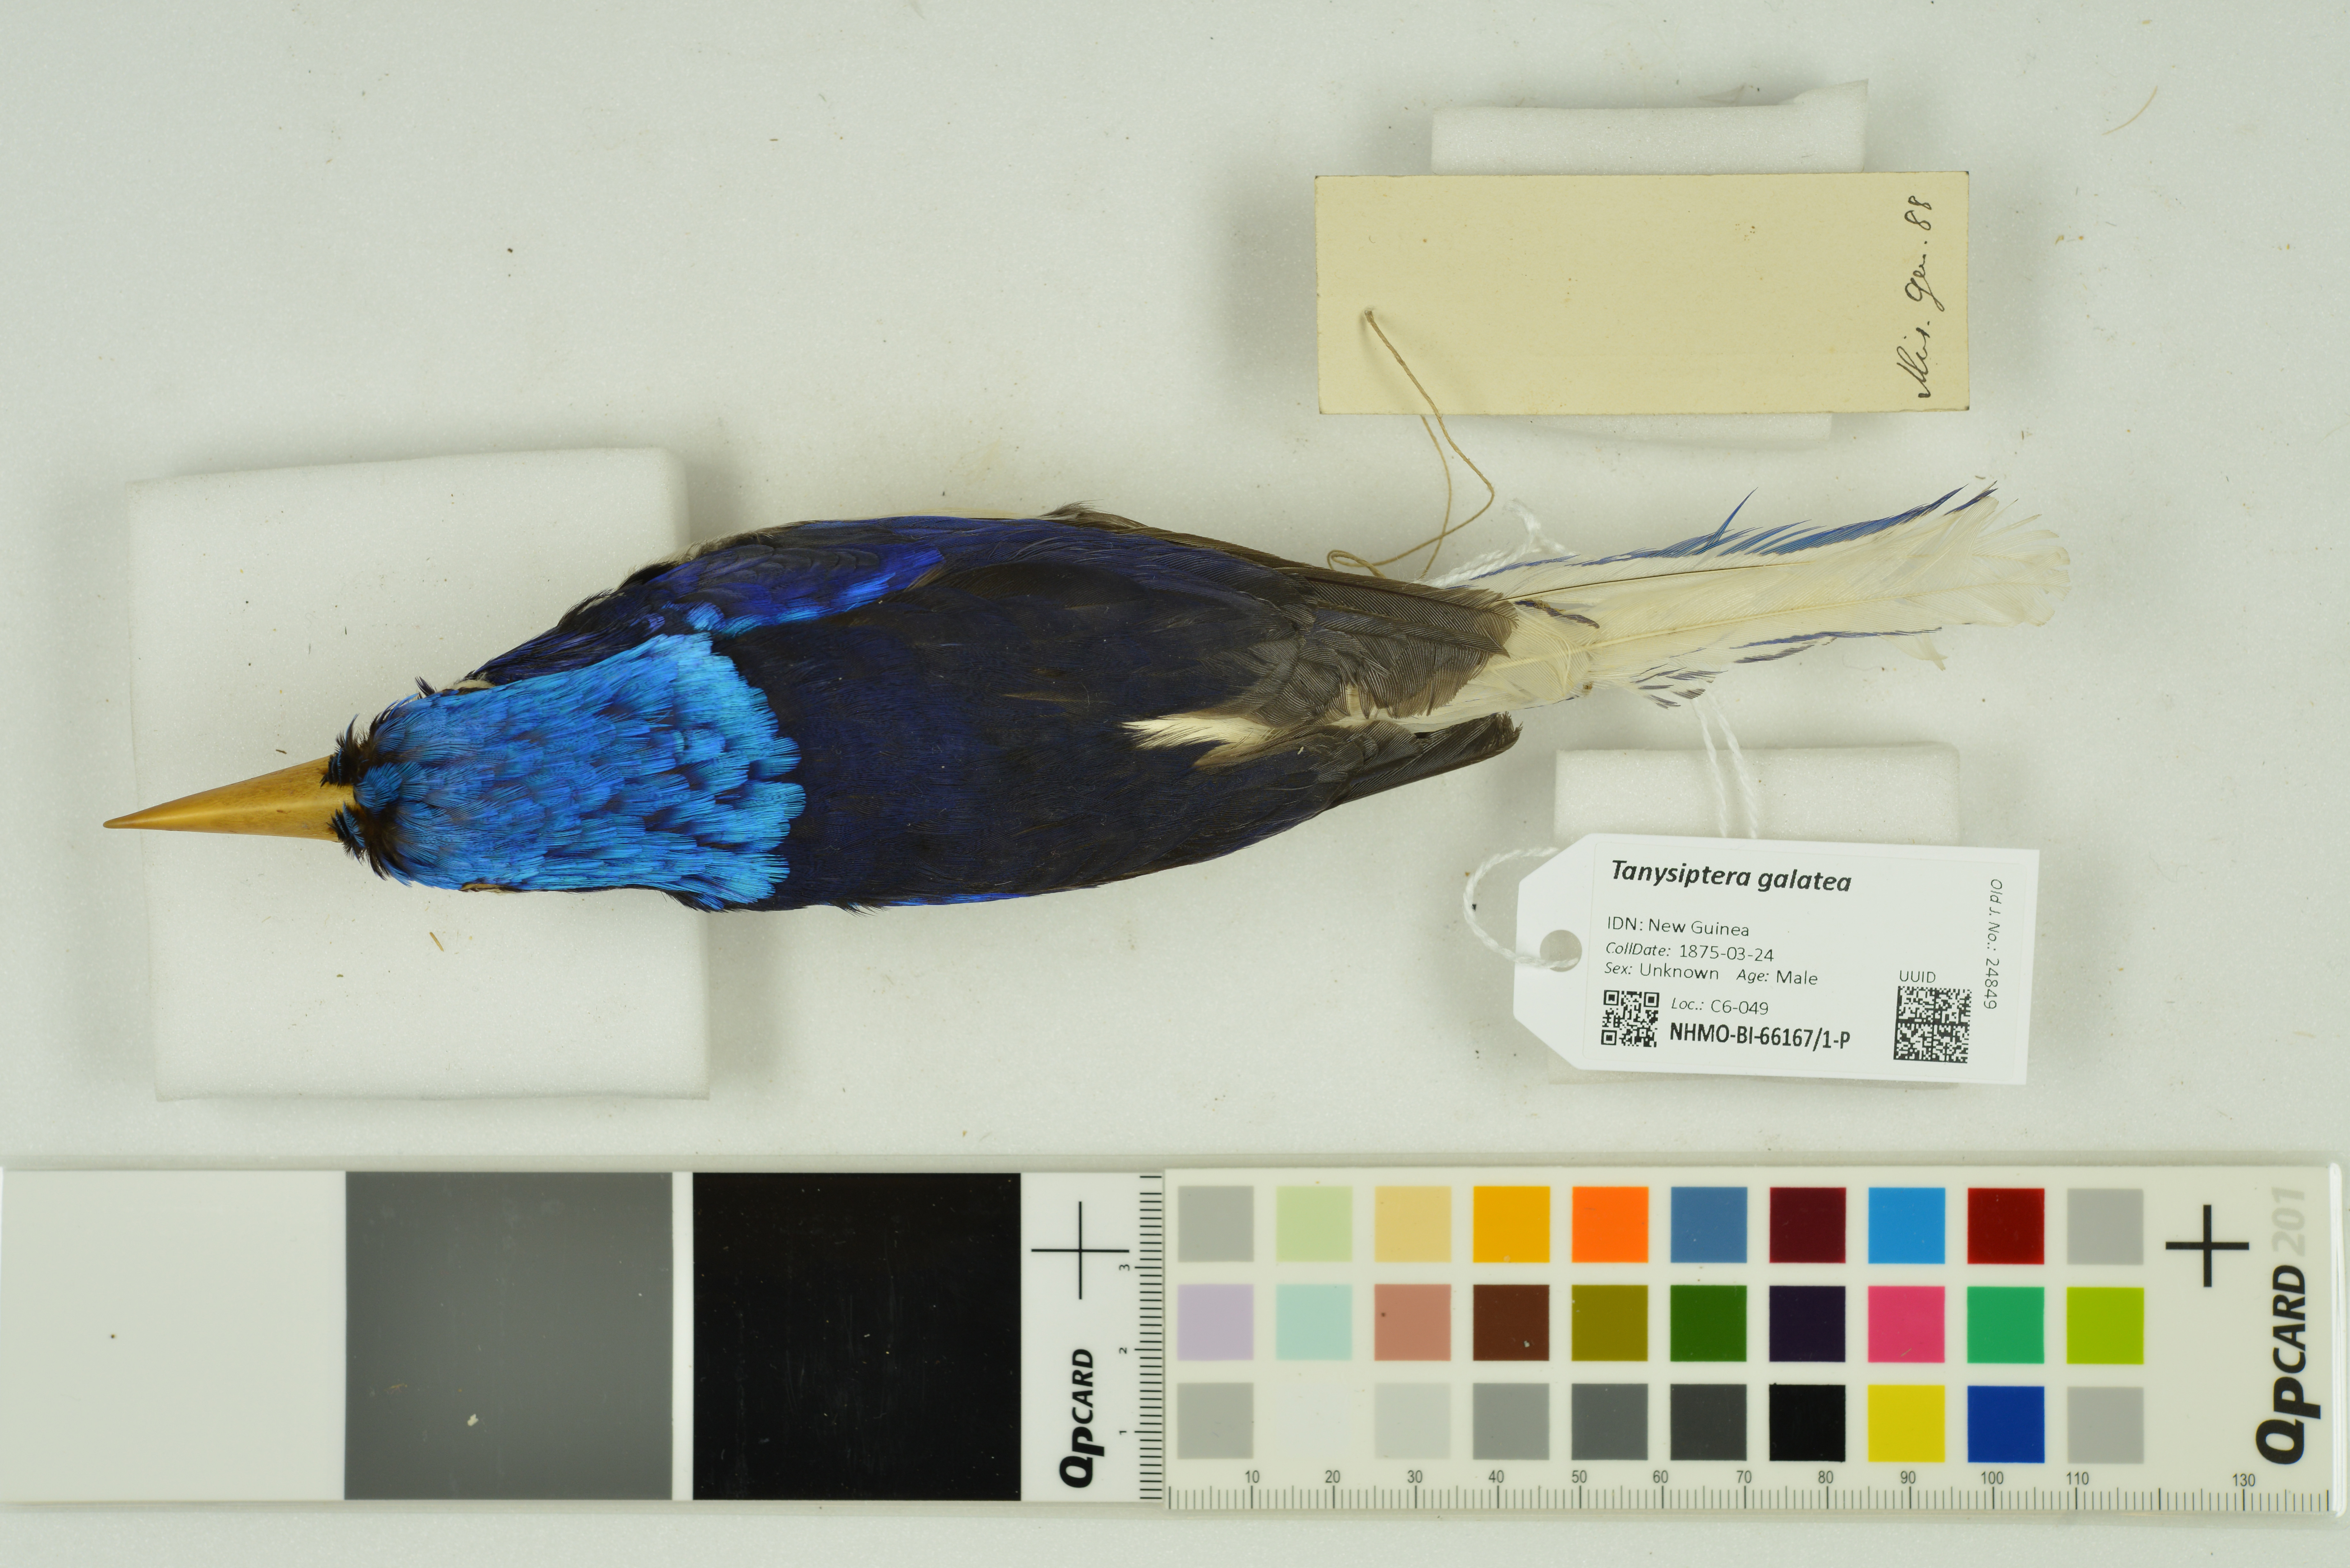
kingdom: Animalia
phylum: Chordata
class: Aves
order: Coraciiformes
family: Alcedinidae
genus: Tanysiptera
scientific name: Tanysiptera galatea
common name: Common paradise-kingfisher
